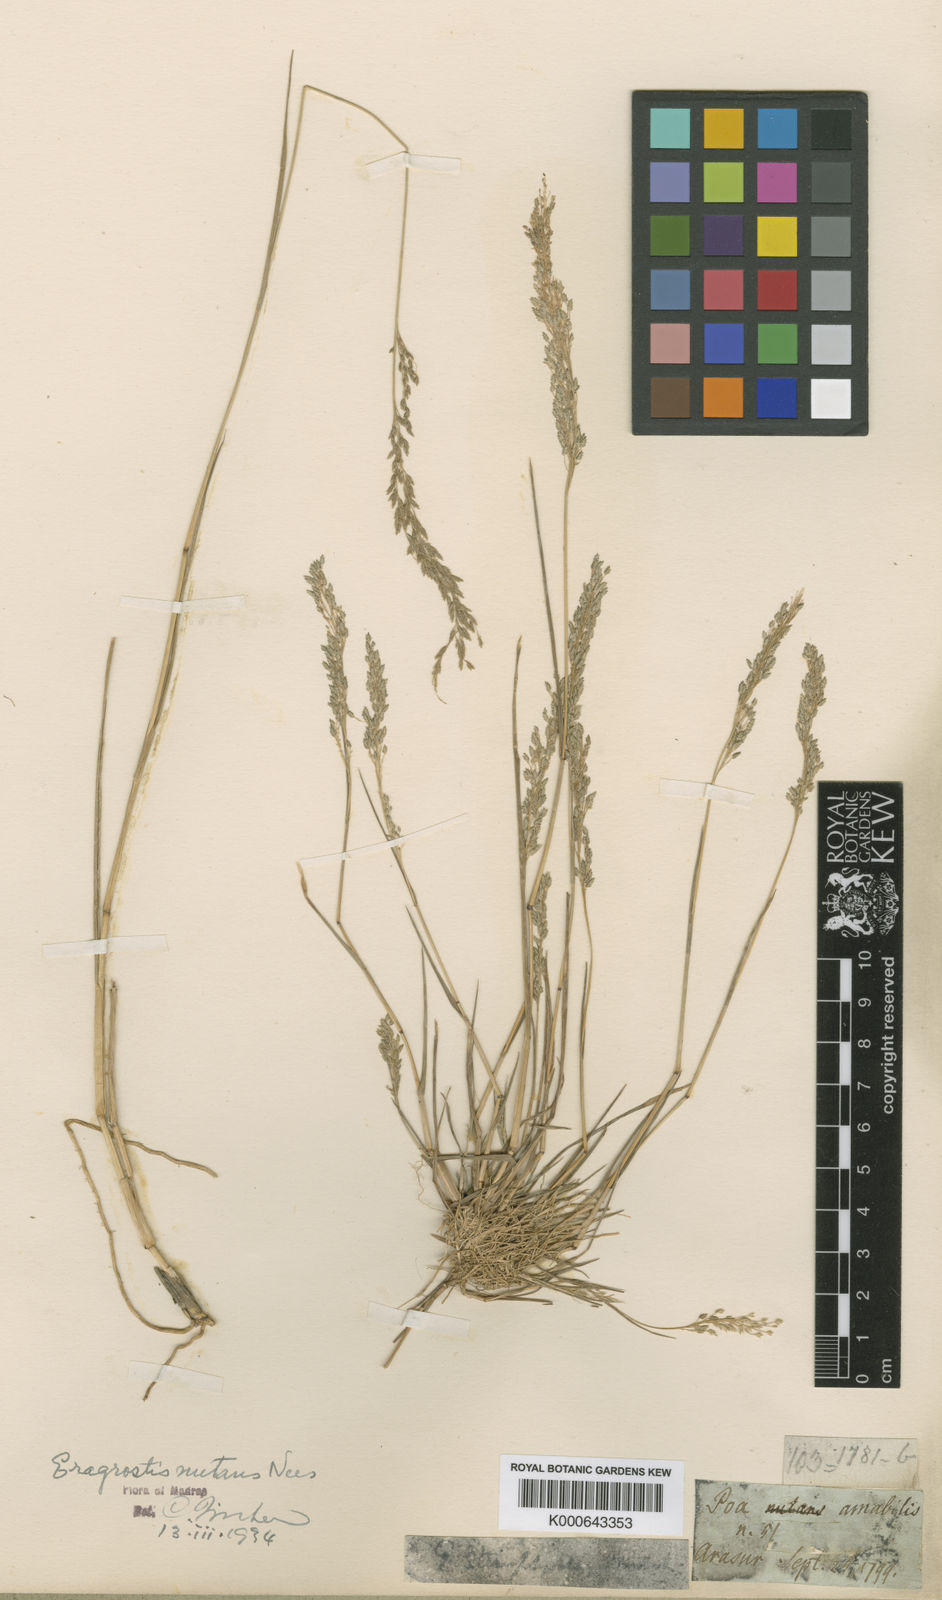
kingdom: Plantae
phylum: Tracheophyta
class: Liliopsida
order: Poales
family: Poaceae
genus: Eragrostis
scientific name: Eragrostis nutans
